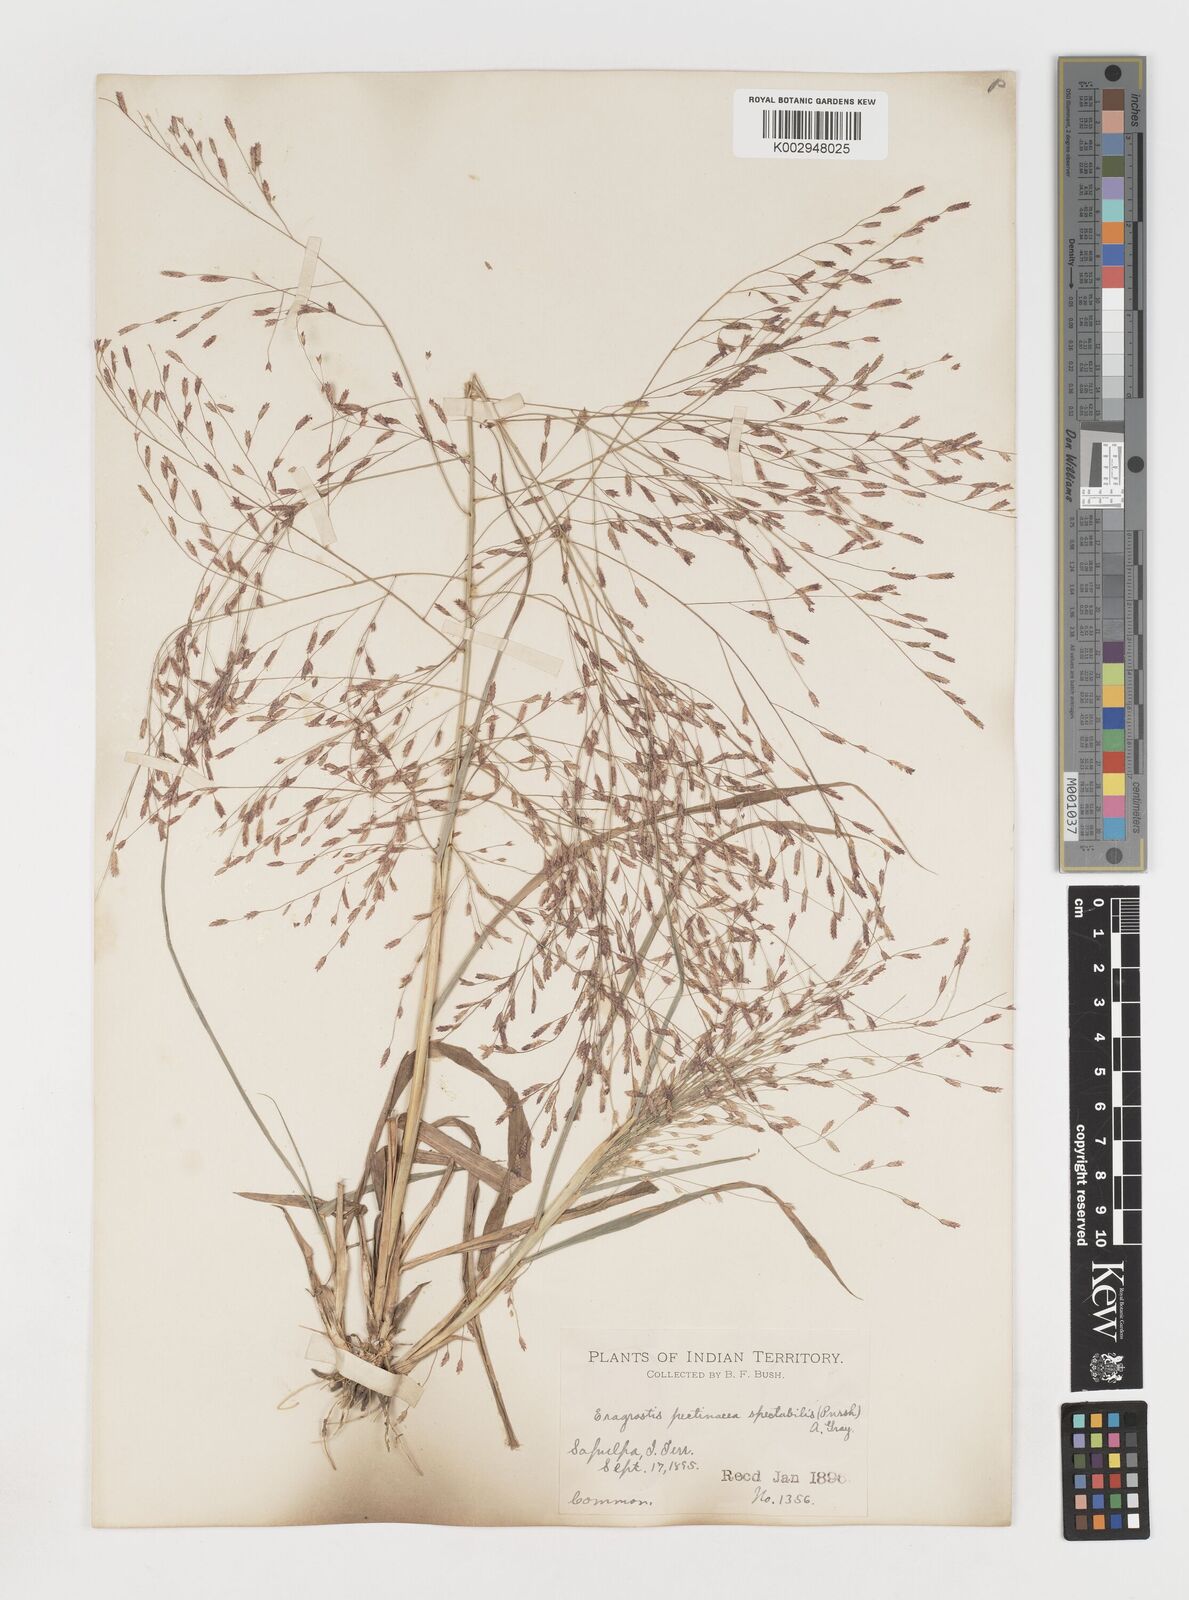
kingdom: Plantae
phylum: Tracheophyta
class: Liliopsida
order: Poales
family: Poaceae
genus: Eragrostis
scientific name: Eragrostis spectabilis
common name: Petticoat-climber
